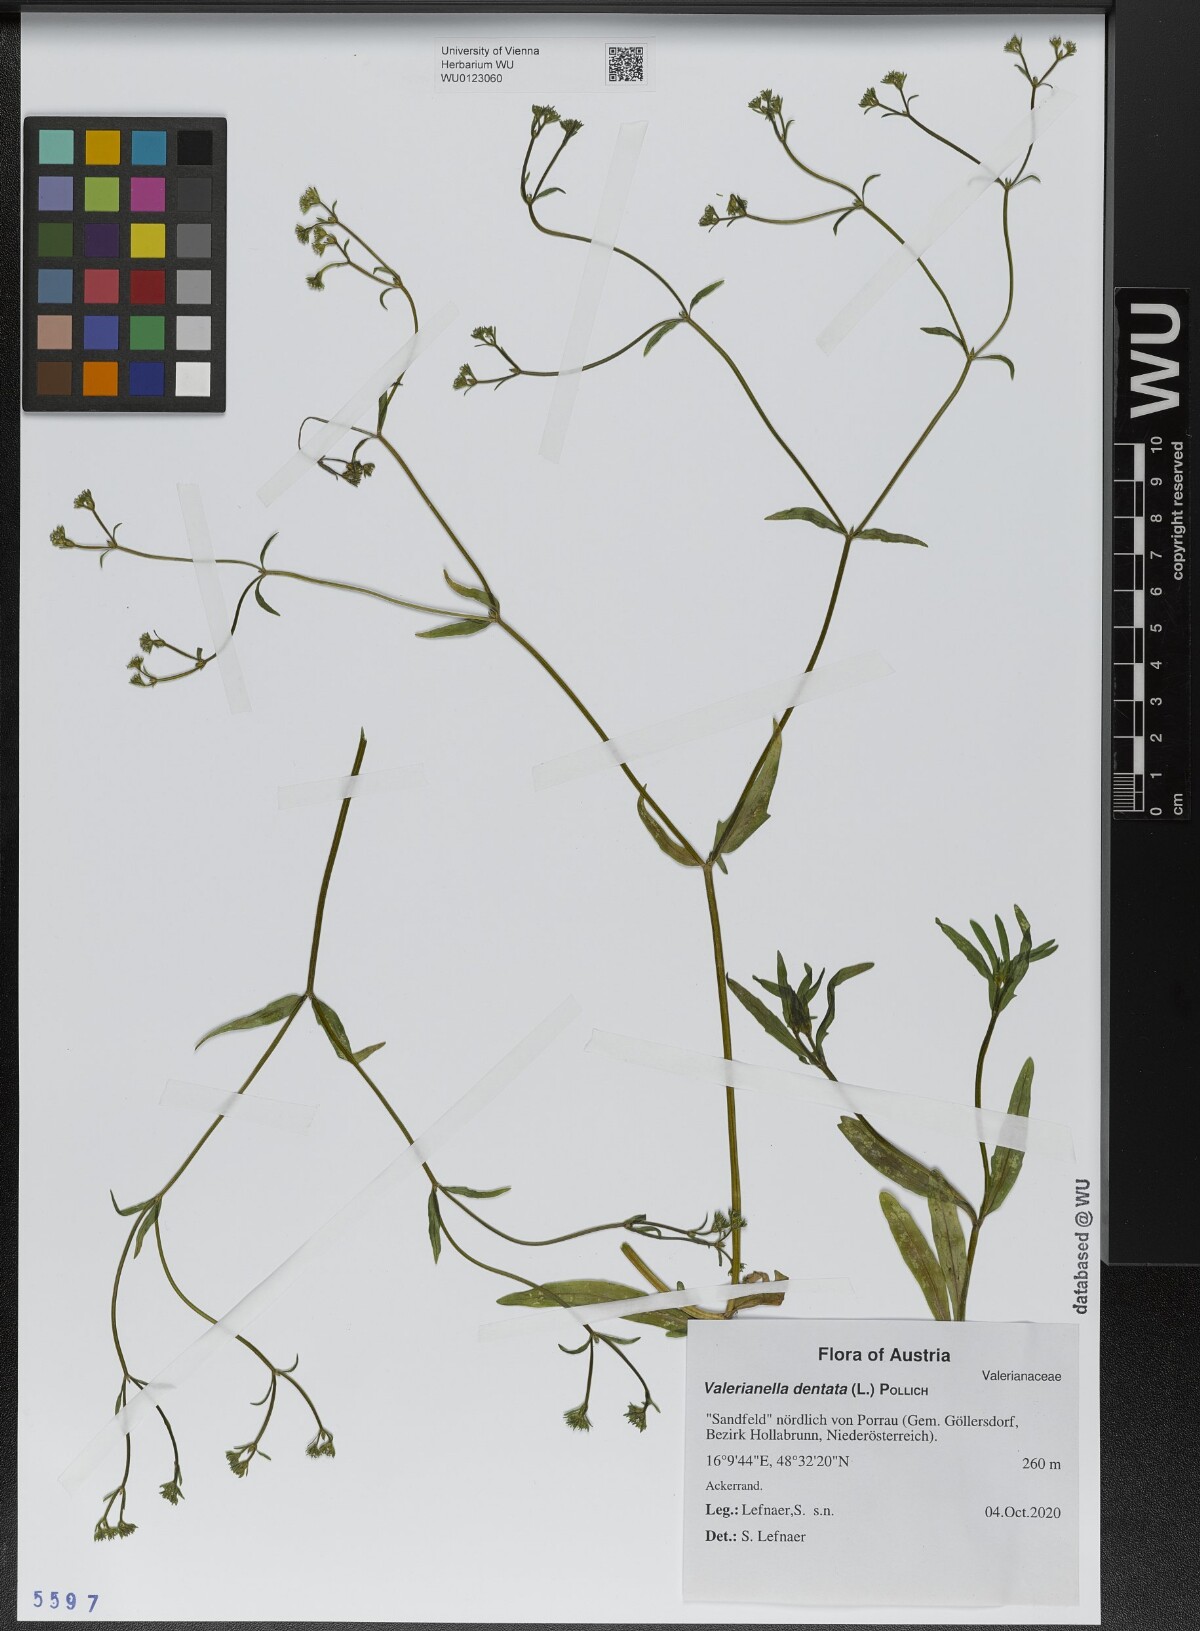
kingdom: Plantae
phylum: Tracheophyta
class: Magnoliopsida
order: Dipsacales
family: Caprifoliaceae
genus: Valerianella
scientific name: Valerianella dentata
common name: Narrow-fruited cornsalad
